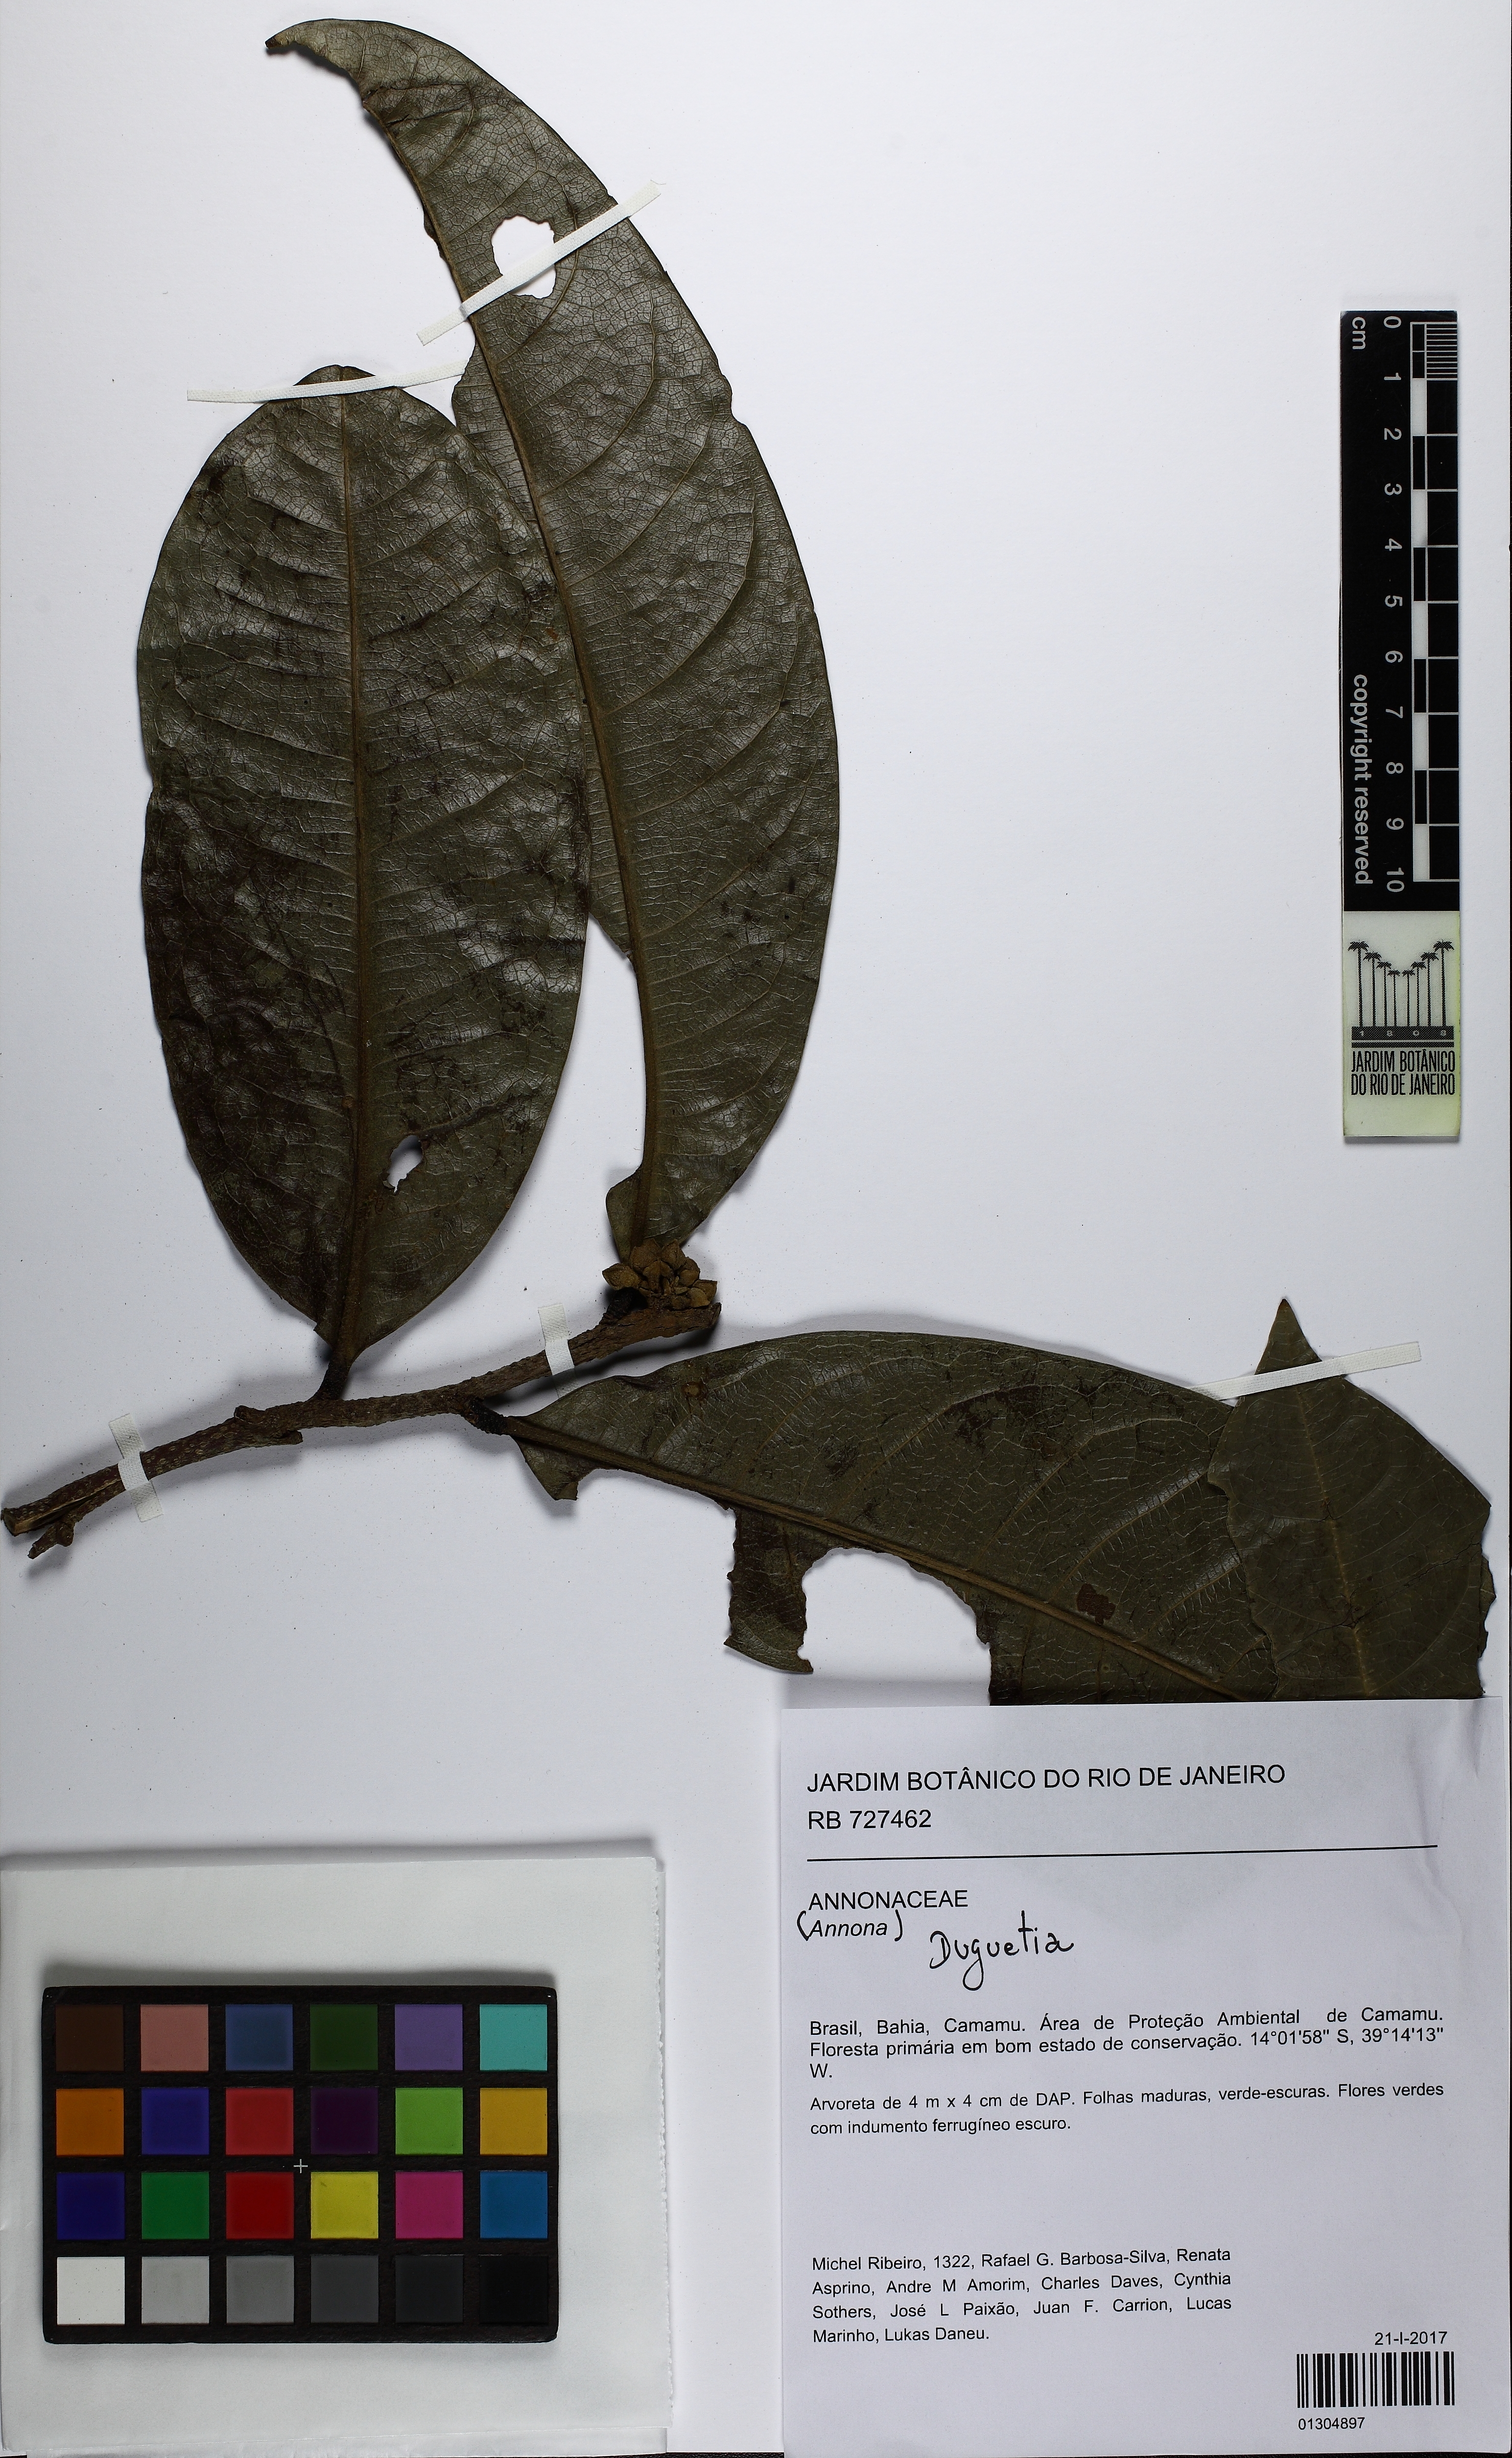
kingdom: Plantae
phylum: Tracheophyta
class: Magnoliopsida
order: Magnoliales
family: Annonaceae
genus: Duguetia
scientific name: Duguetia
